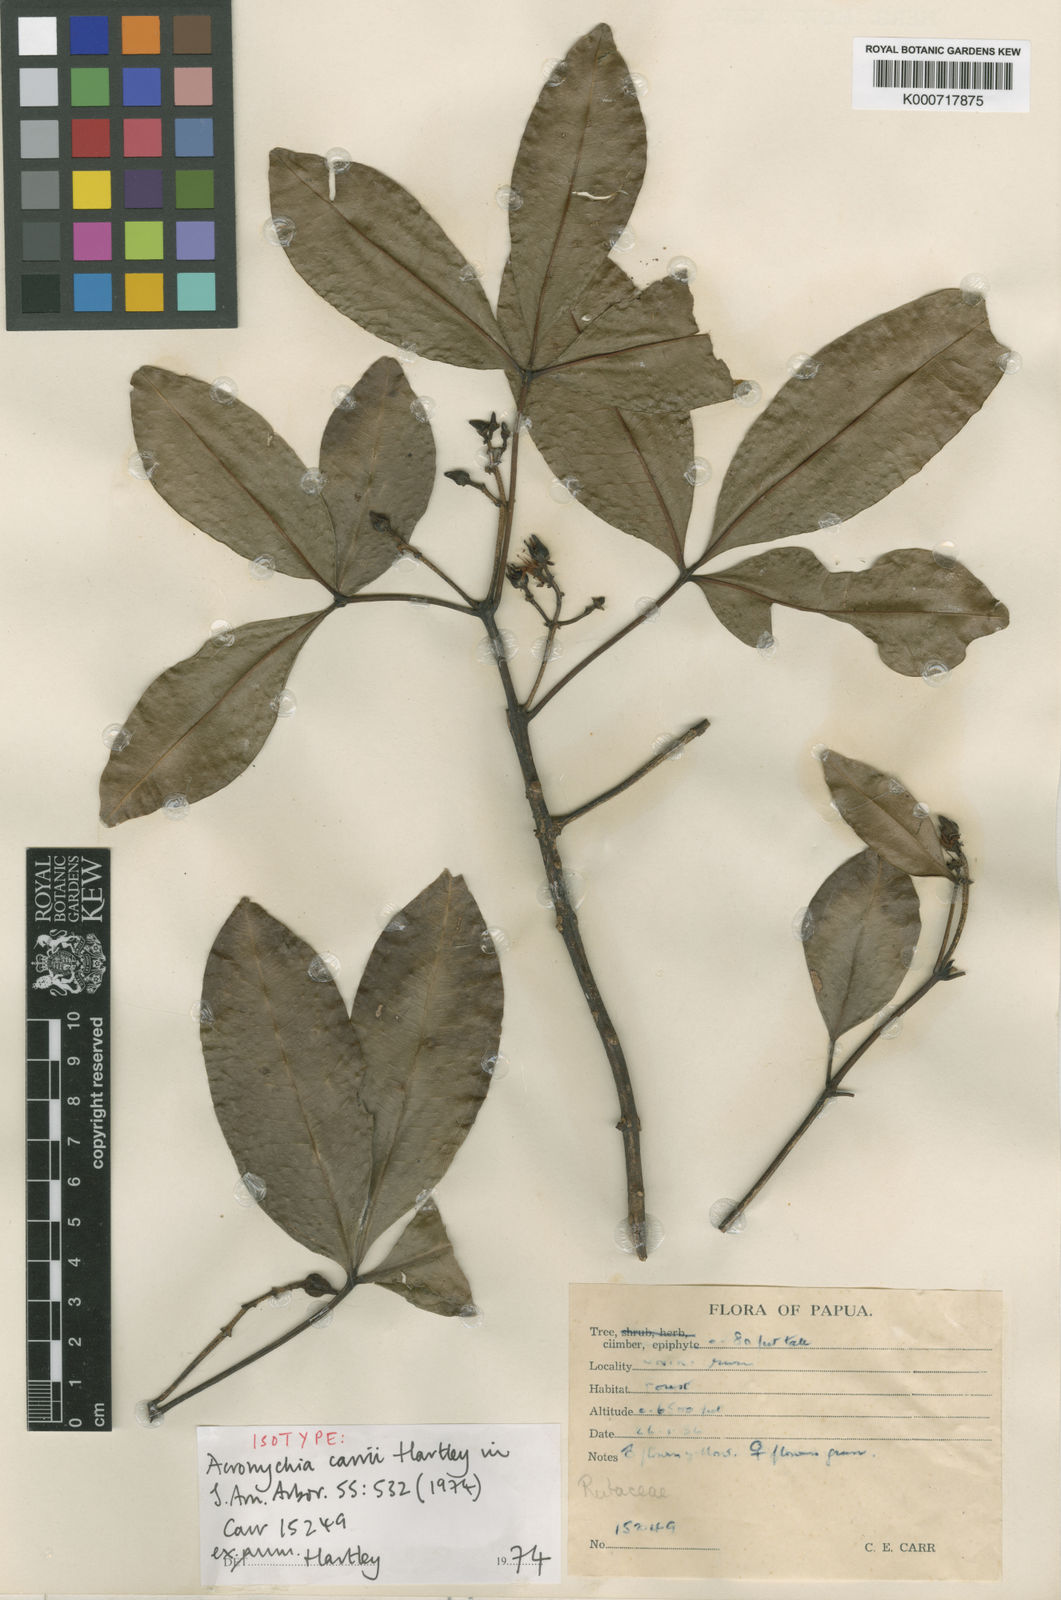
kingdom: Plantae
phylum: Tracheophyta
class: Magnoliopsida
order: Sapindales
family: Rutaceae
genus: Acronychia
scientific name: Acronychia carrii
